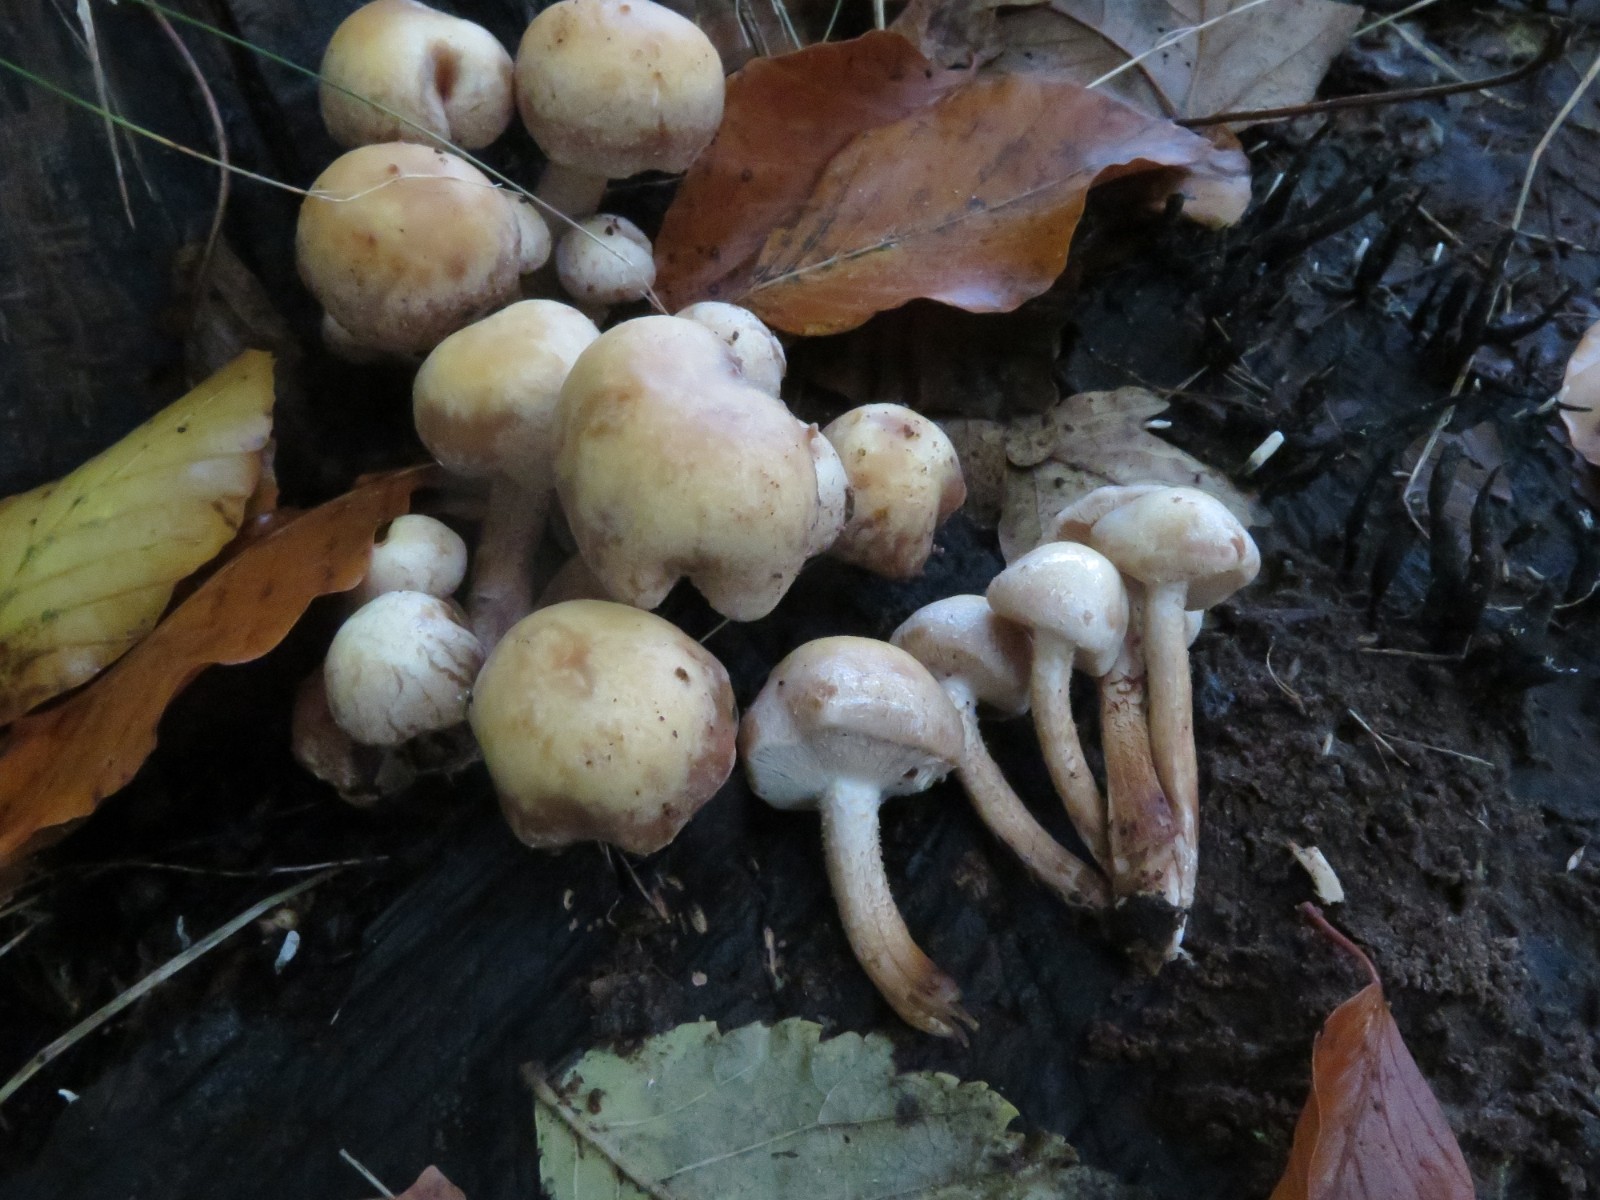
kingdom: Fungi
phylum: Basidiomycota
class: Agaricomycetes
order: Agaricales
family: Strophariaceae
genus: Kuehneromyces
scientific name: Kuehneromyces mutabilis
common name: foranderlig skælhat
